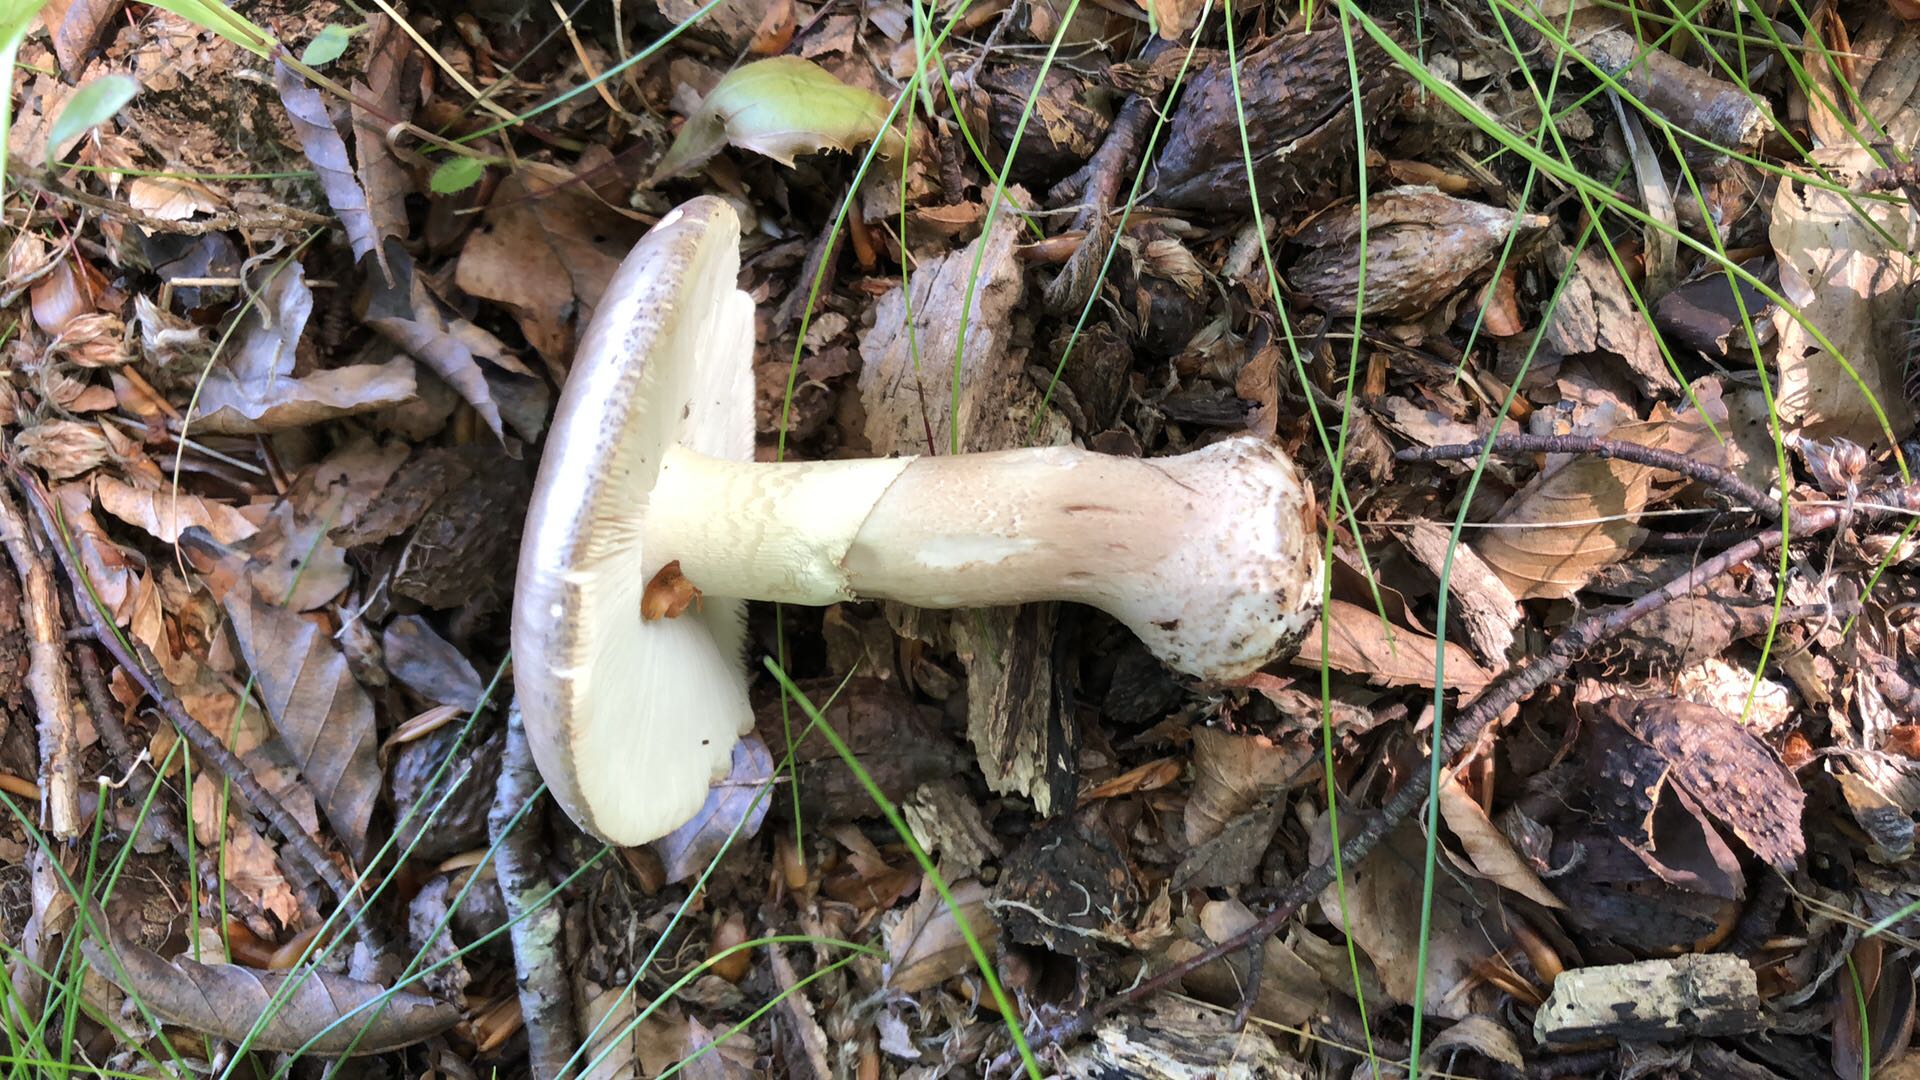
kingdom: Fungi
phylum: Basidiomycota
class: Agaricomycetes
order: Agaricales
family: Amanitaceae
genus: Amanita
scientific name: Amanita rubescens
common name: rødmende fluesvamp
